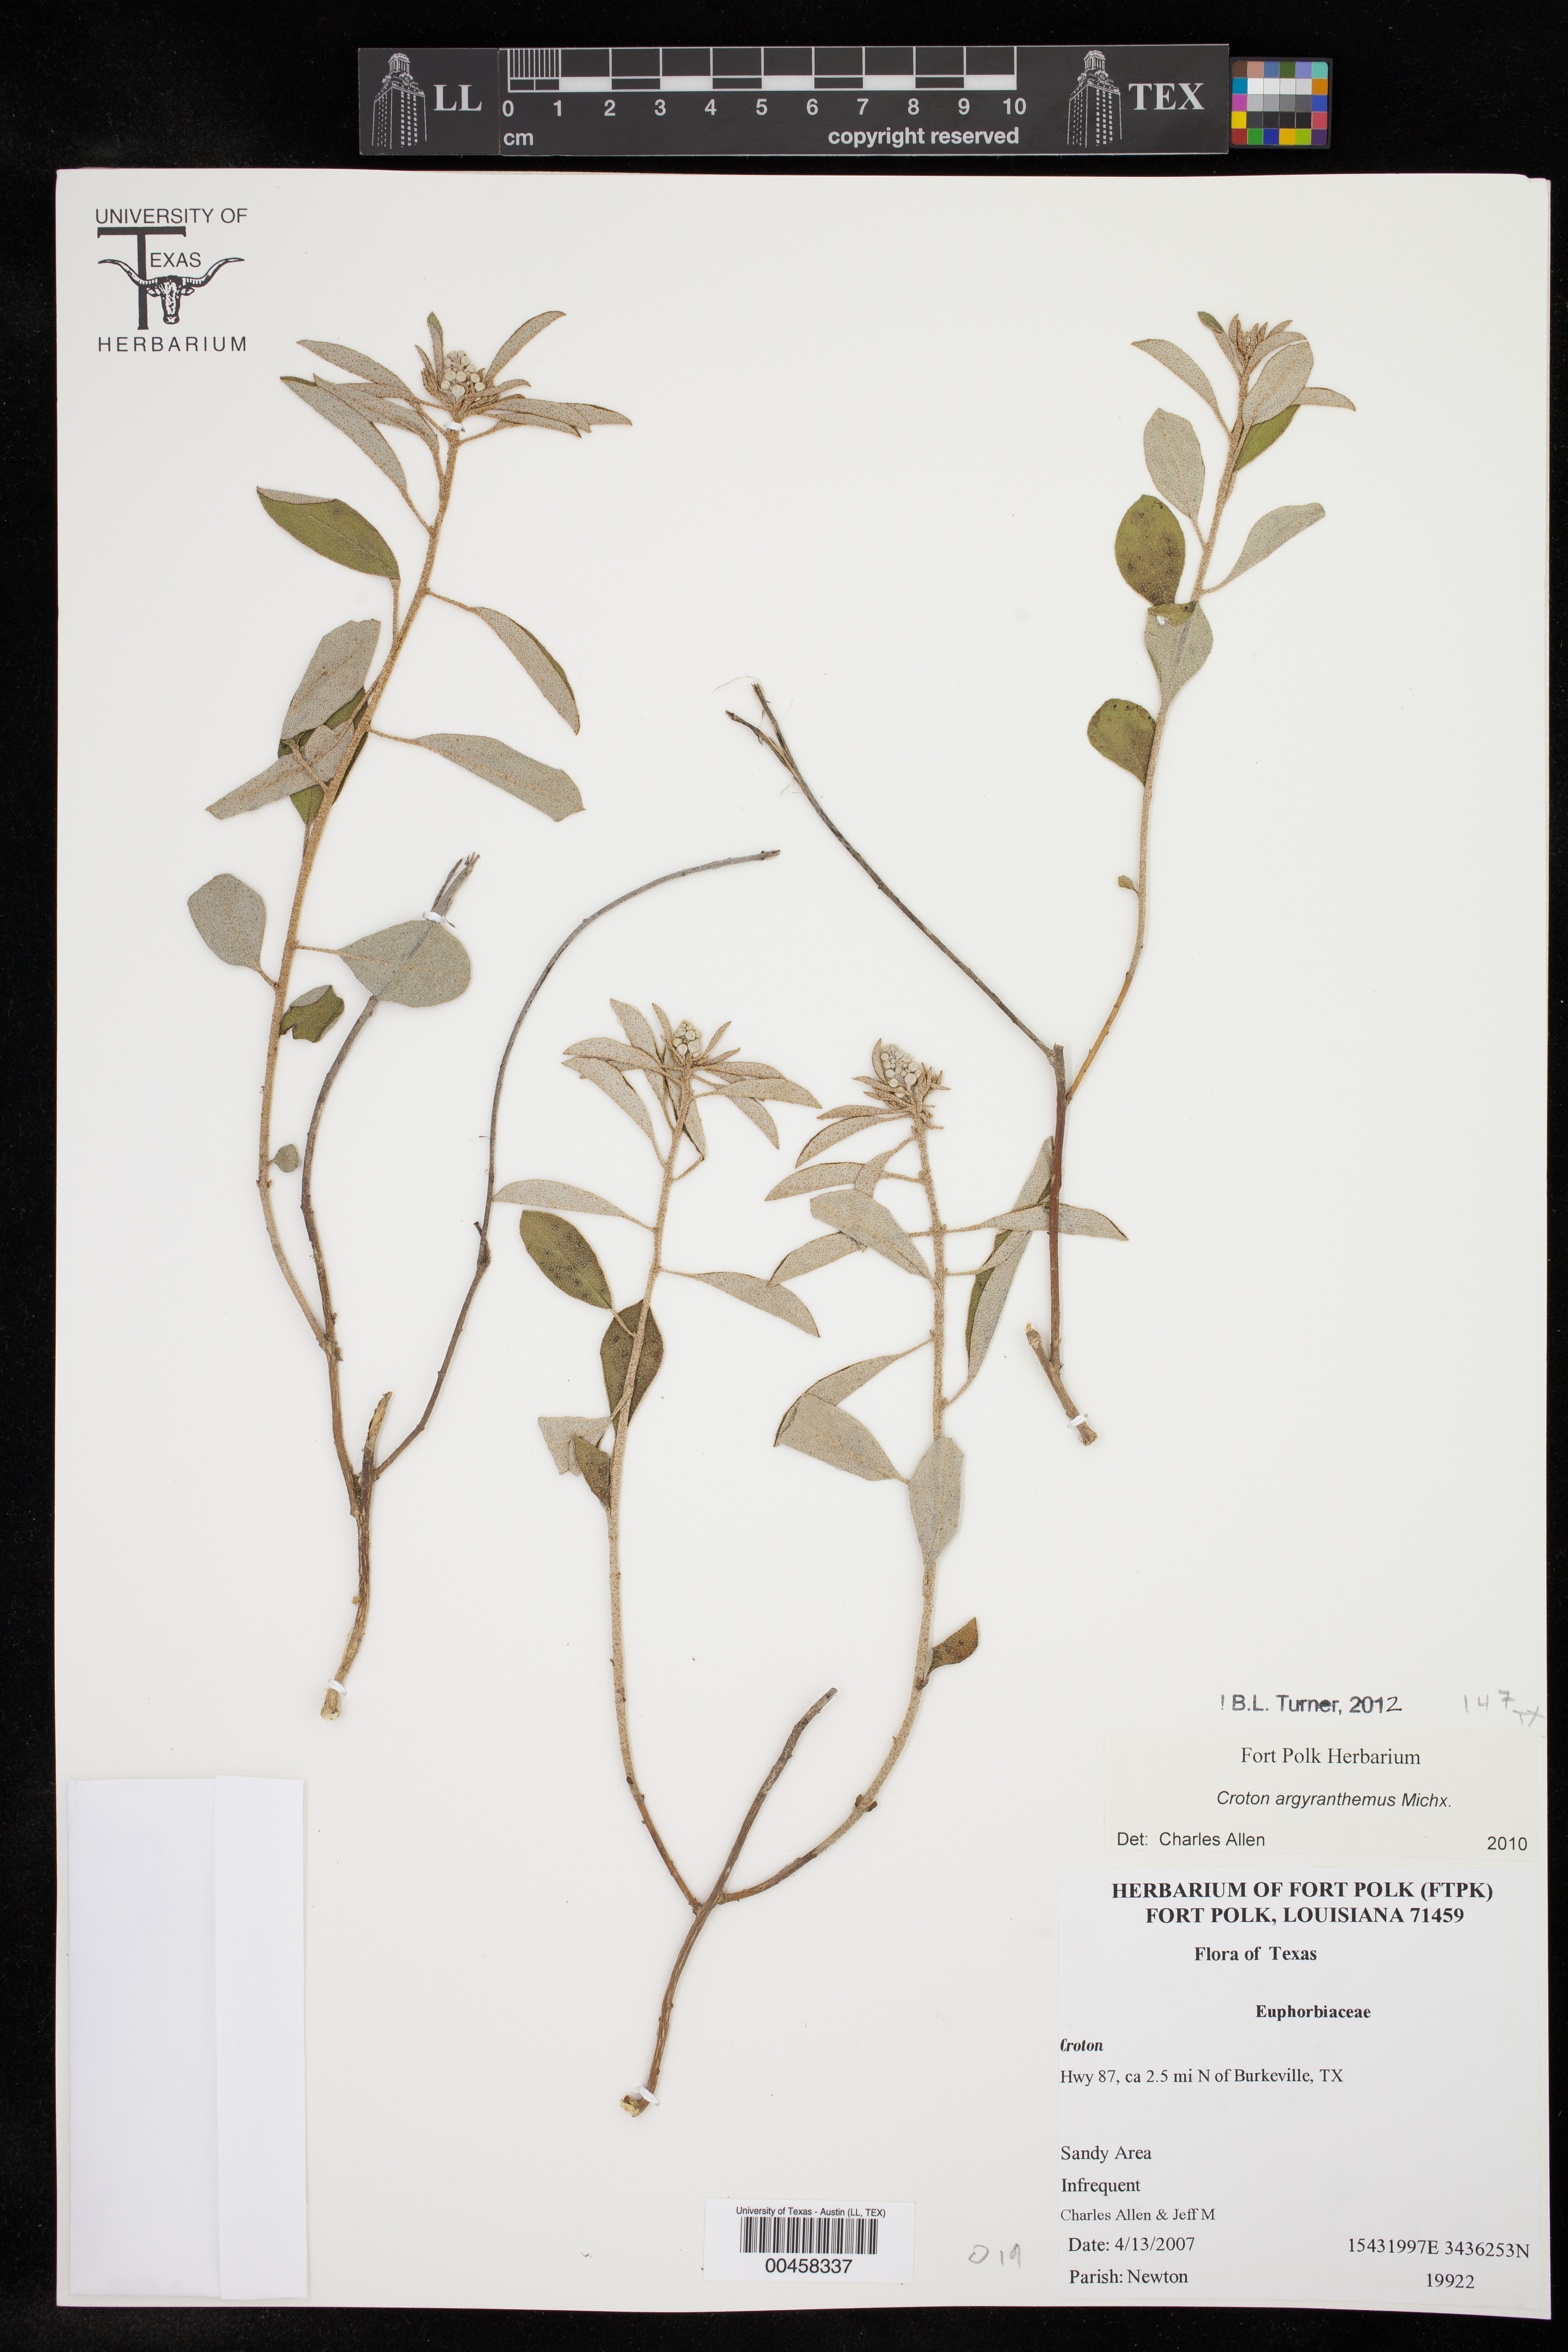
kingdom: Plantae
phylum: Tracheophyta
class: Magnoliopsida
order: Malpighiales
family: Euphorbiaceae
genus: Croton
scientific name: Croton argyranthemus
